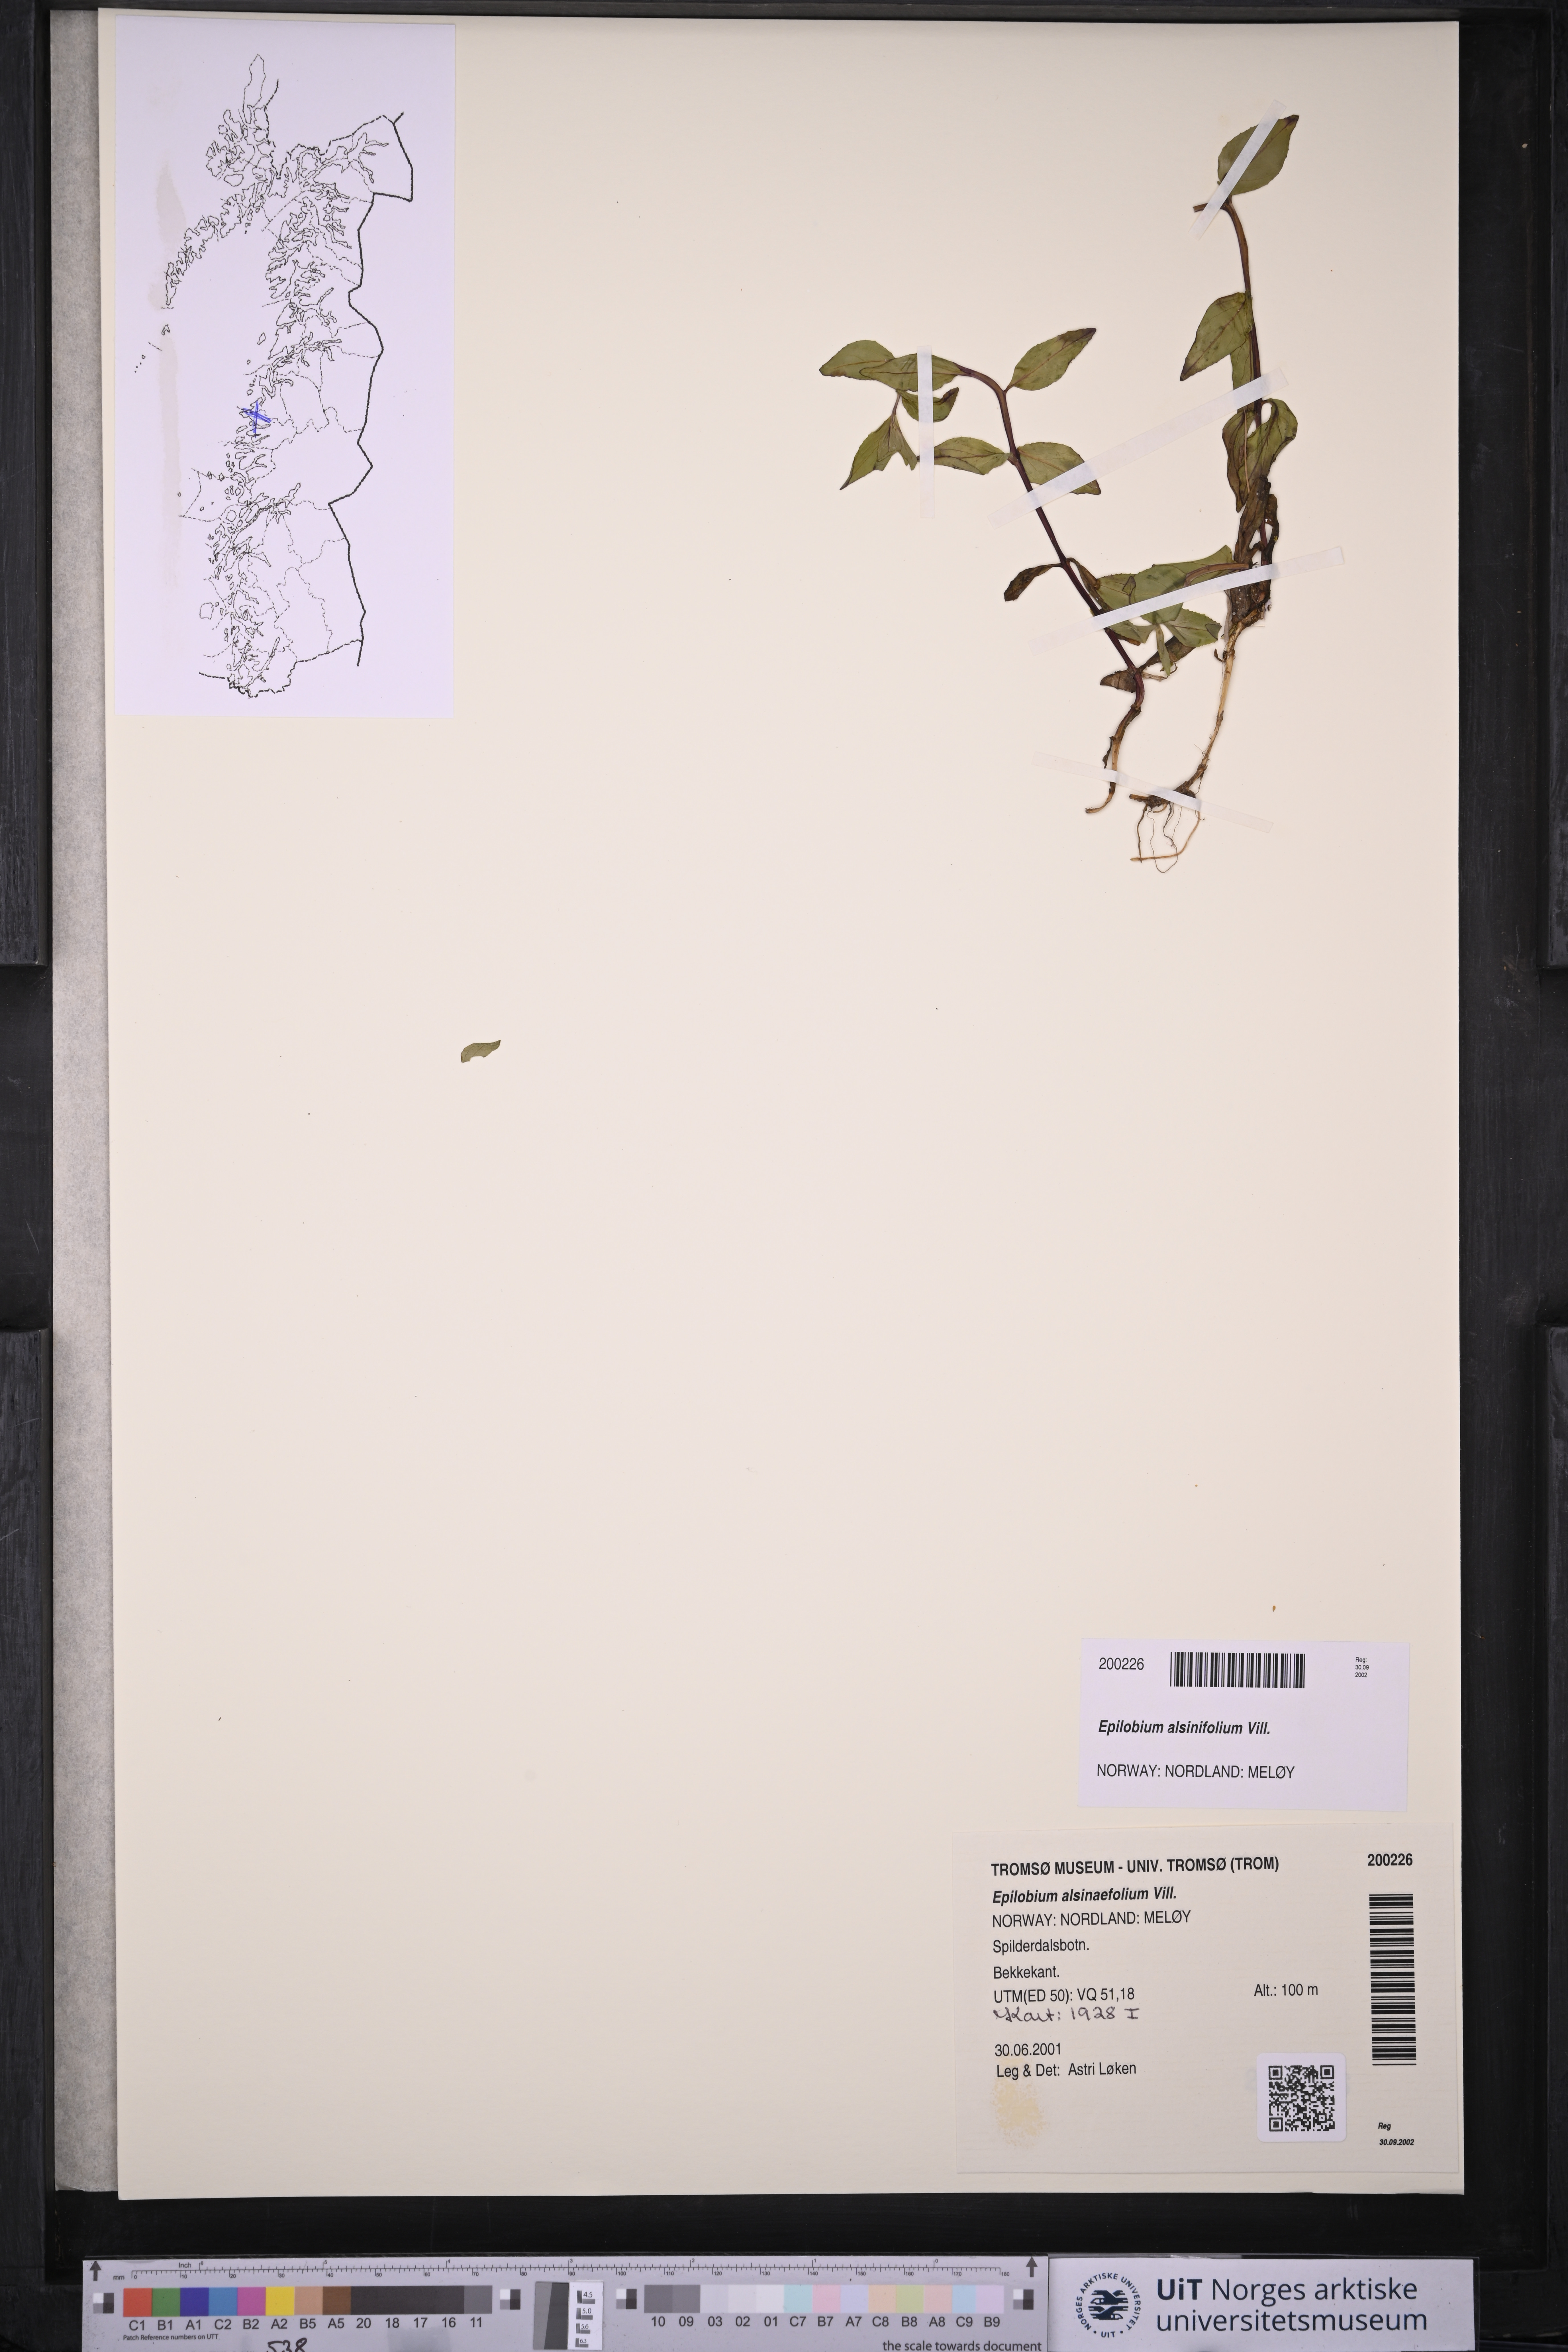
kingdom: Plantae
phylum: Tracheophyta
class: Magnoliopsida
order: Myrtales
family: Onagraceae
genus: Epilobium
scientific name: Epilobium alsinifolium
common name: Chickweed willowherb
